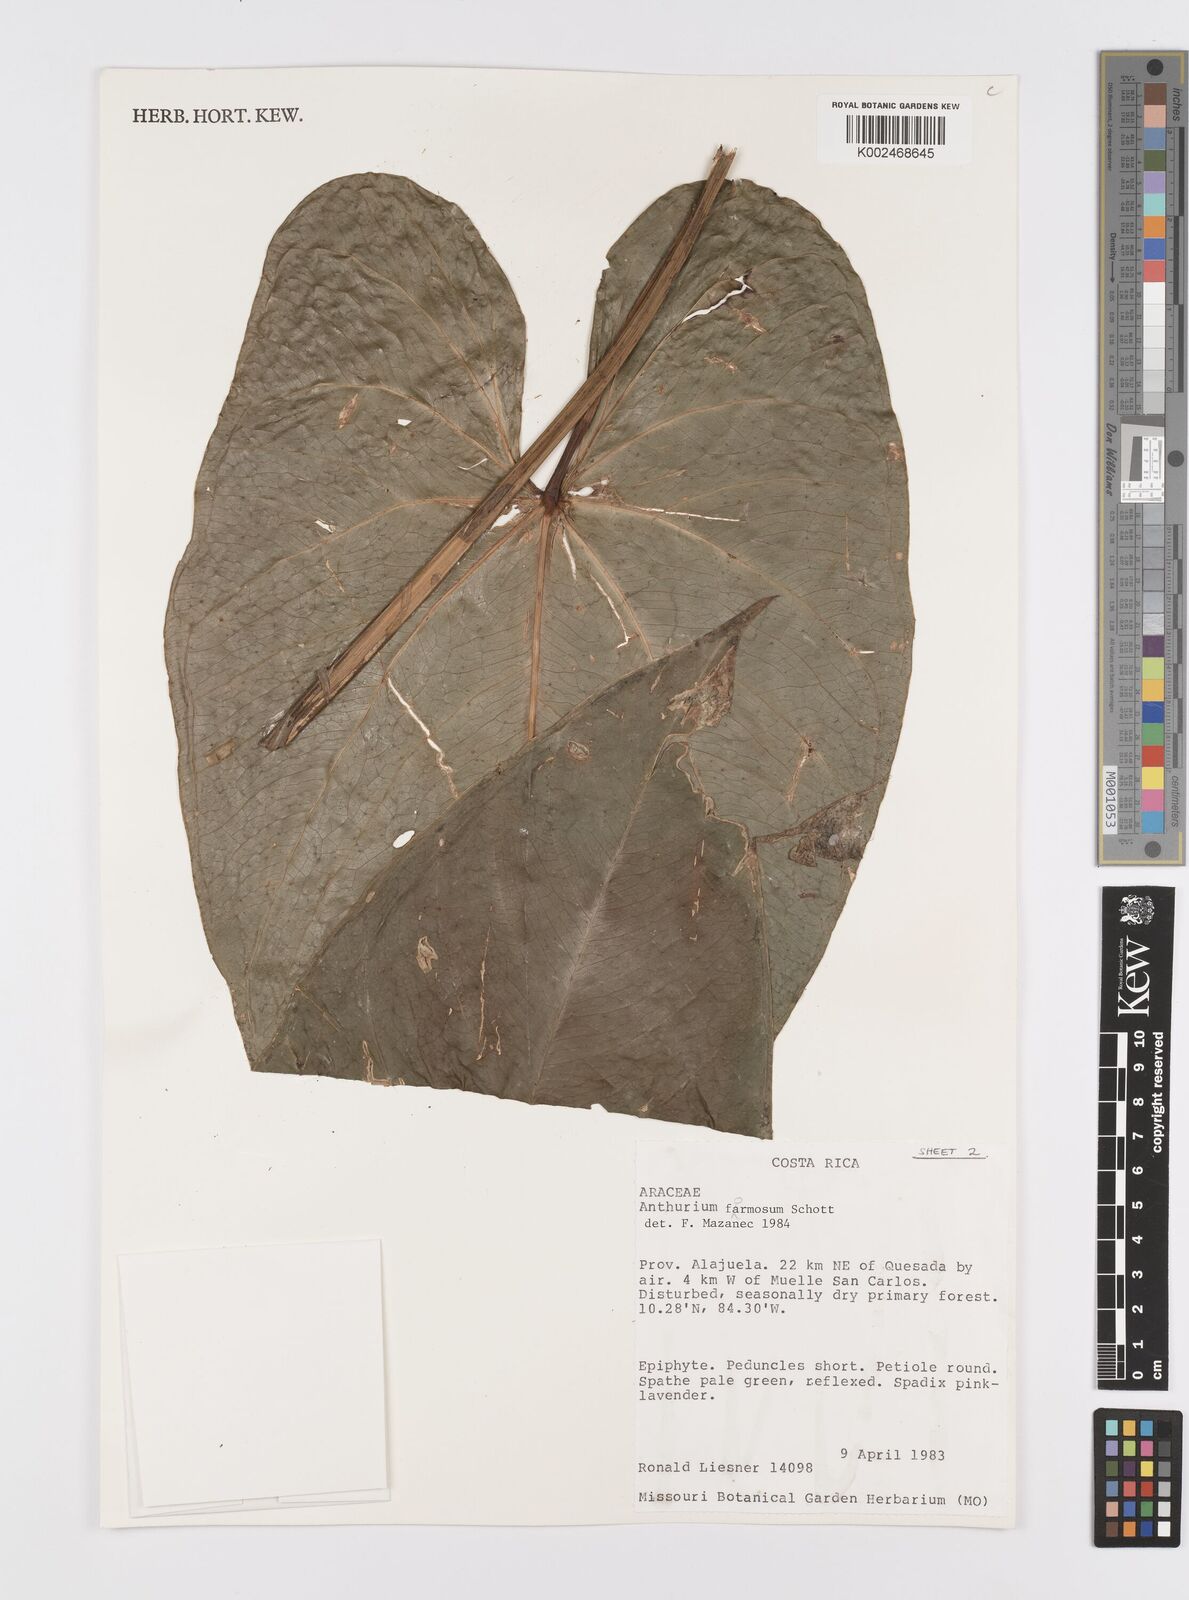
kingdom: Plantae
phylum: Tracheophyta
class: Liliopsida
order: Alismatales
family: Araceae
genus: Anthurium
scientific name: Anthurium formosum
